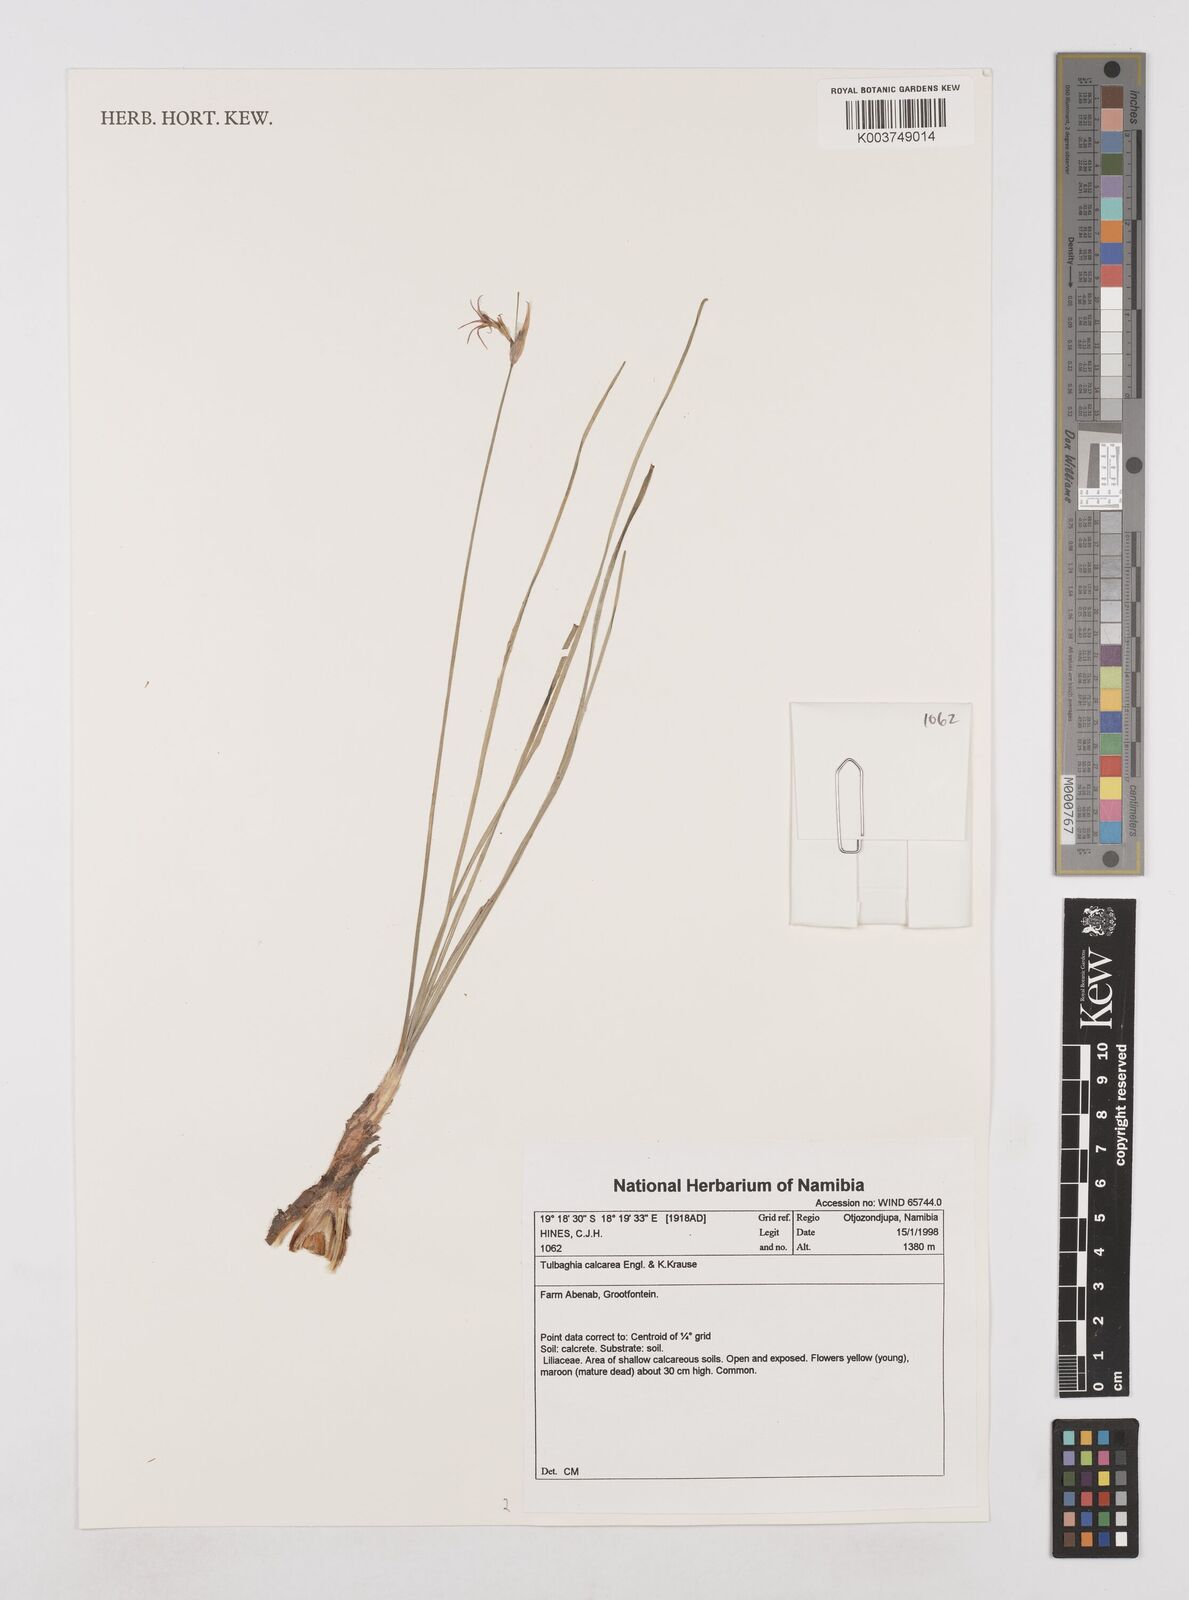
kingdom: Plantae
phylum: Tracheophyta
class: Liliopsida
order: Asparagales
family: Amaryllidaceae
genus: Tulbaghia
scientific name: Tulbaghia calcarea
